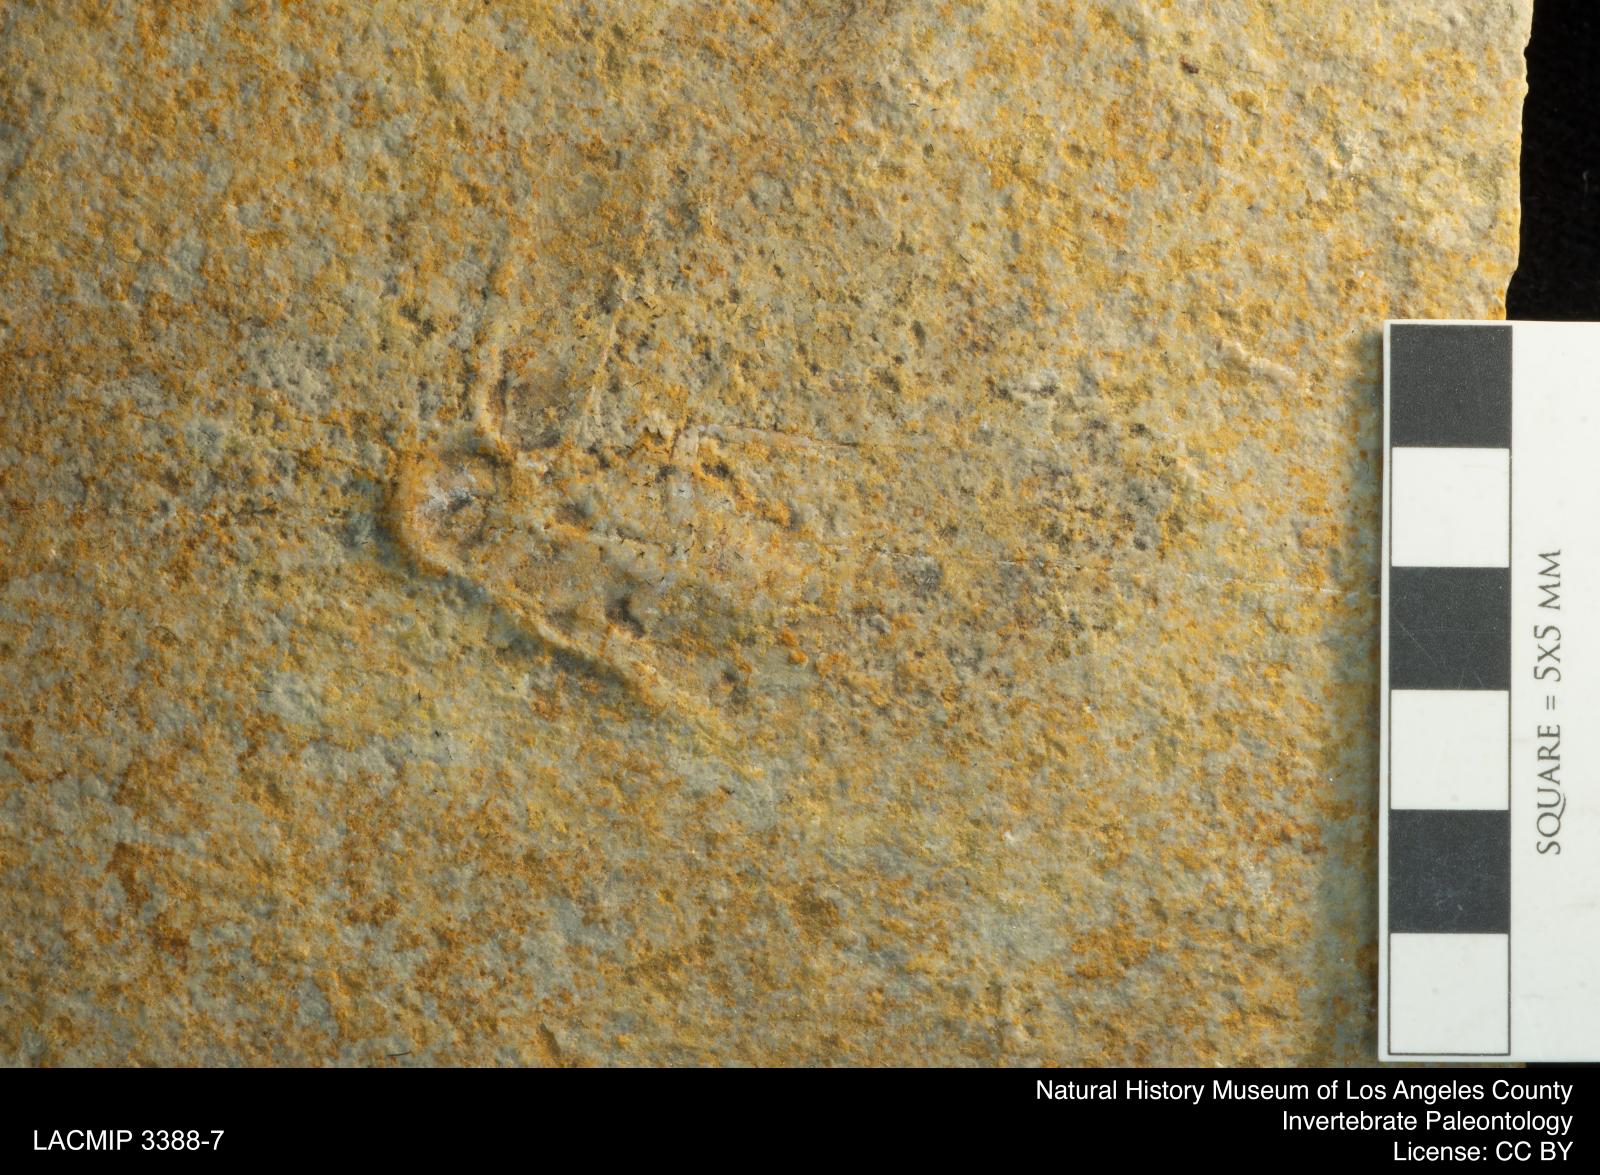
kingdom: Animalia
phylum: Arthropoda
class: Insecta
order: Blattodea
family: Mesoblattinidae
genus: Lithoblatta
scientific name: Lithoblatta Musca lithophila
